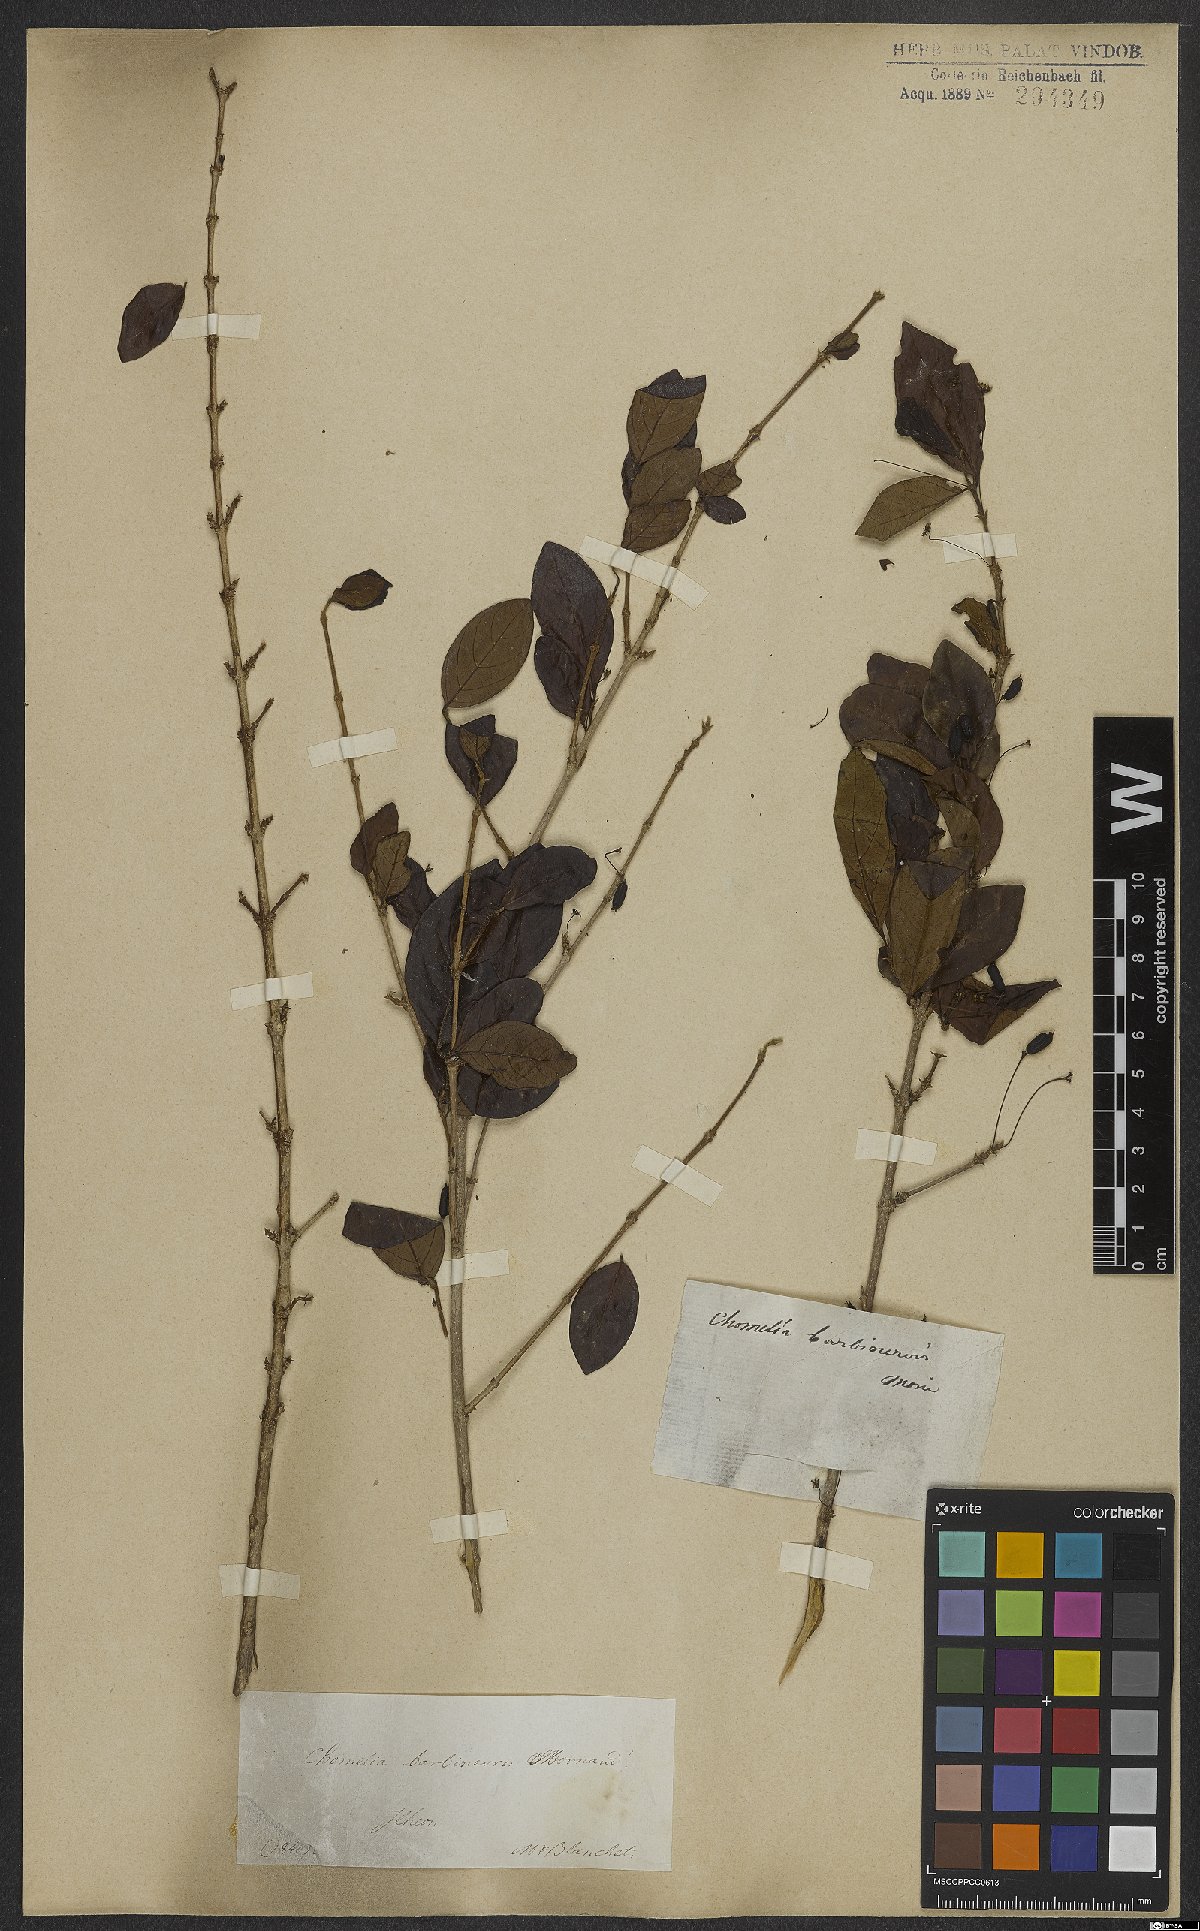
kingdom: Plantae
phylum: Tracheophyta
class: Magnoliopsida
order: Gentianales
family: Rubiaceae
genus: Chomelia
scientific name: Chomelia barbinervis
